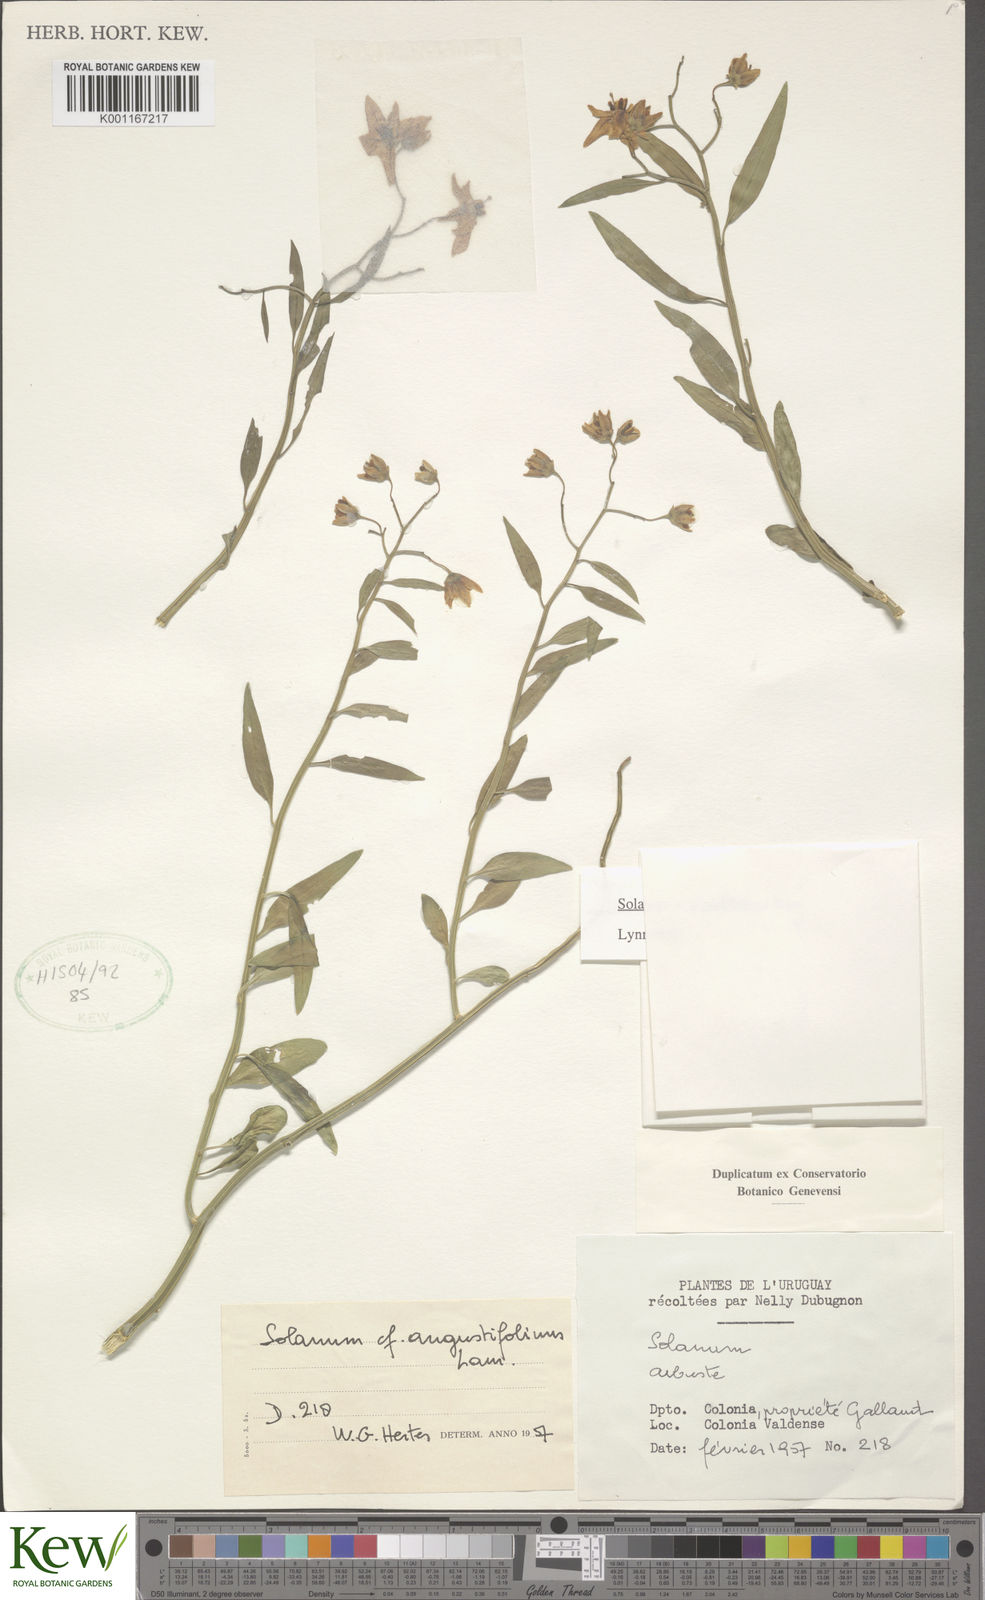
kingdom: Plantae
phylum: Tracheophyta
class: Magnoliopsida
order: Solanales
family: Solanaceae
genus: Solanum
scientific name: Solanum amygdalifolium
